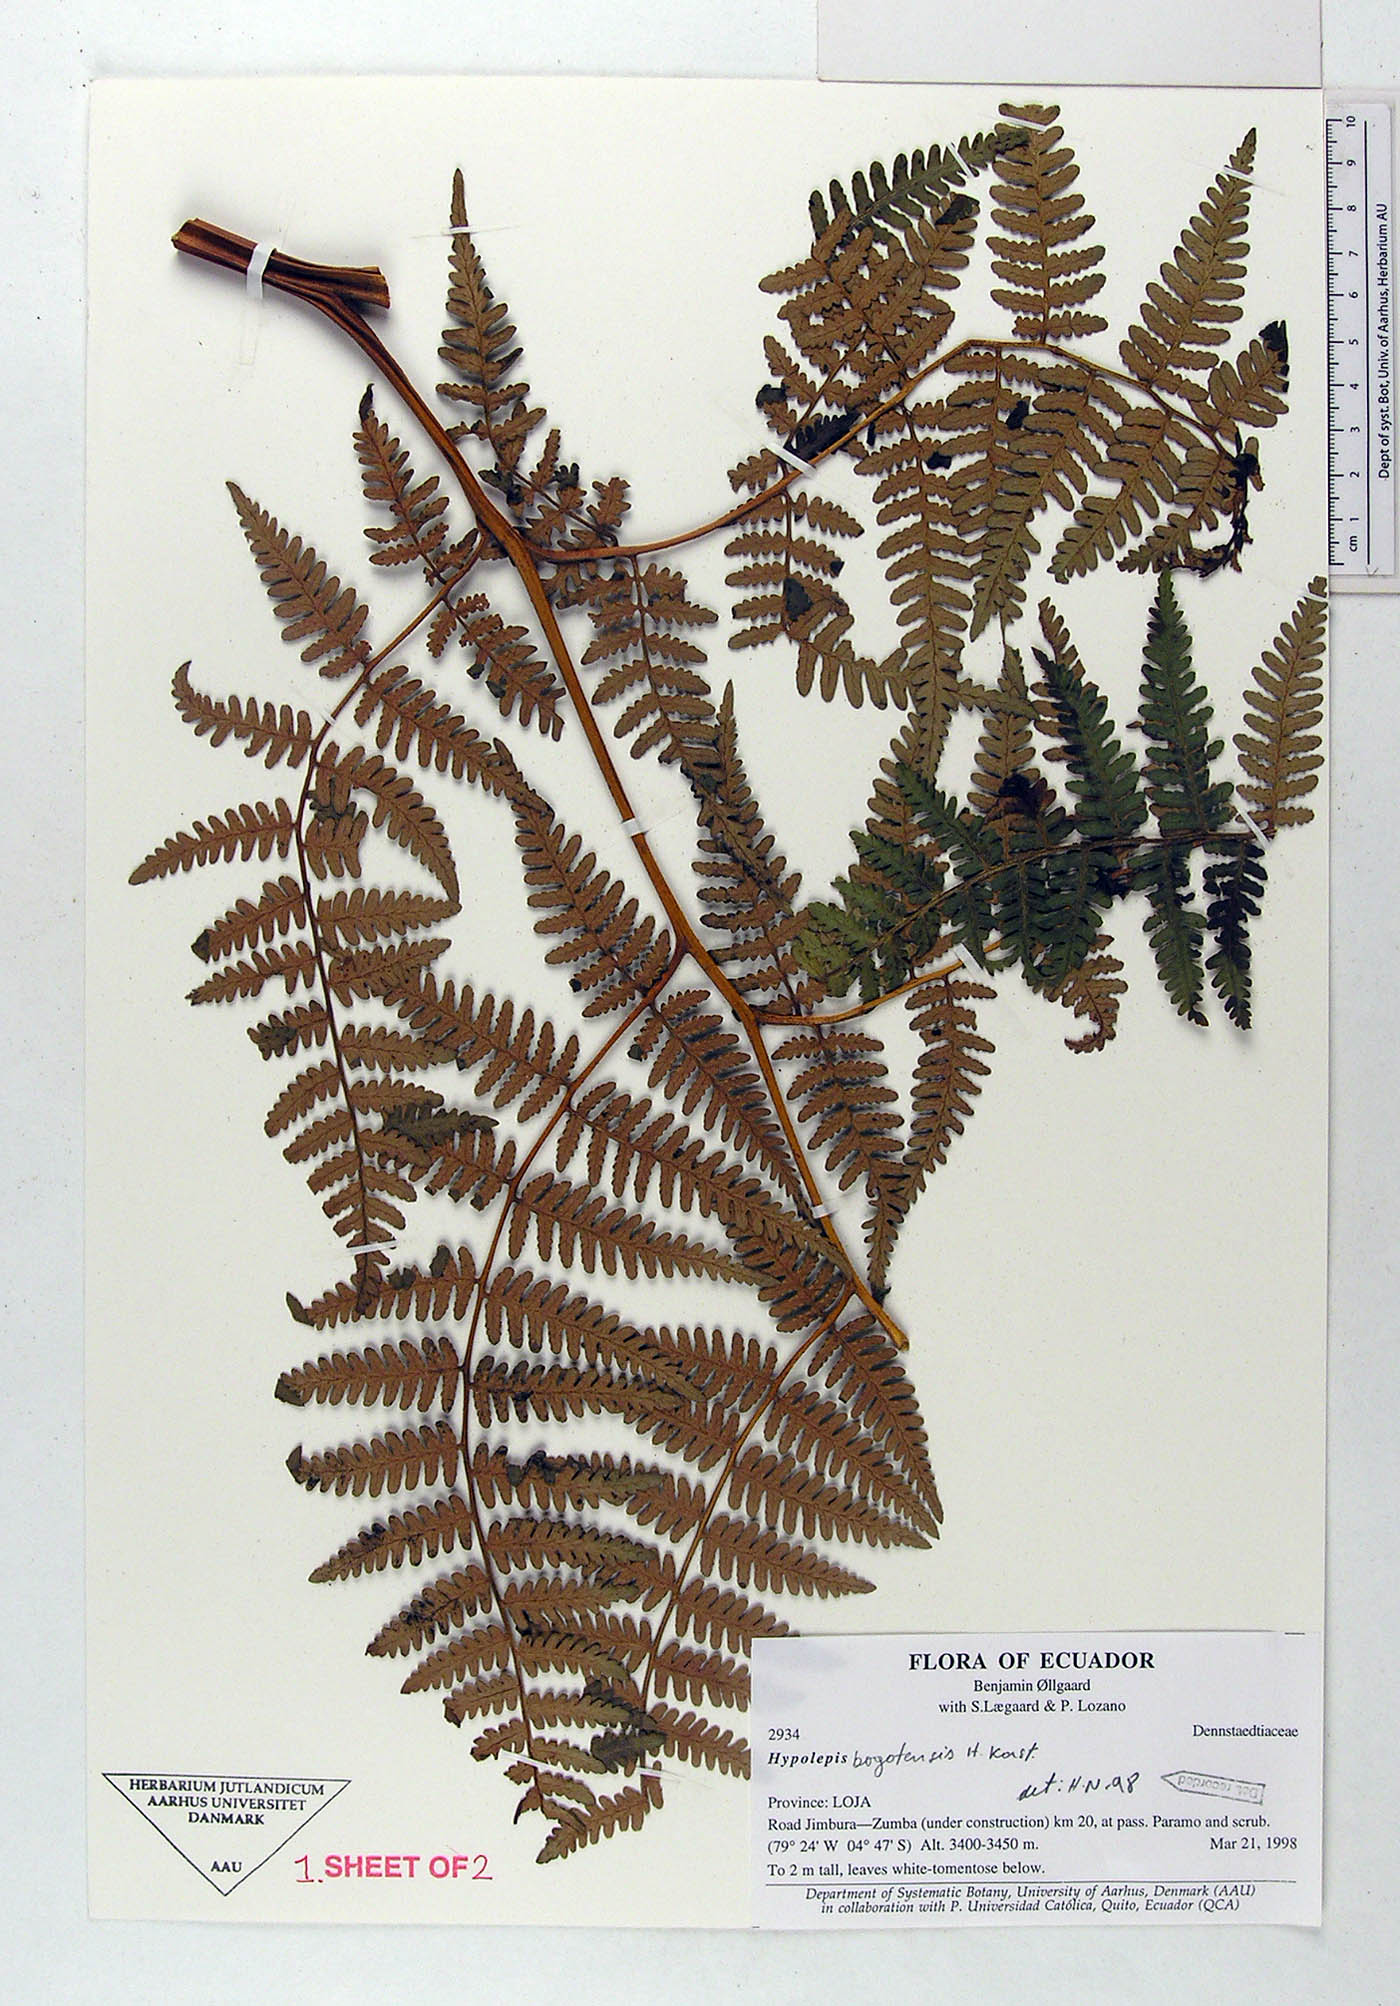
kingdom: Plantae
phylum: Tracheophyta
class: Polypodiopsida
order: Polypodiales
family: Dennstaedtiaceae
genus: Hypolepis
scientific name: Hypolepis bogotensis
